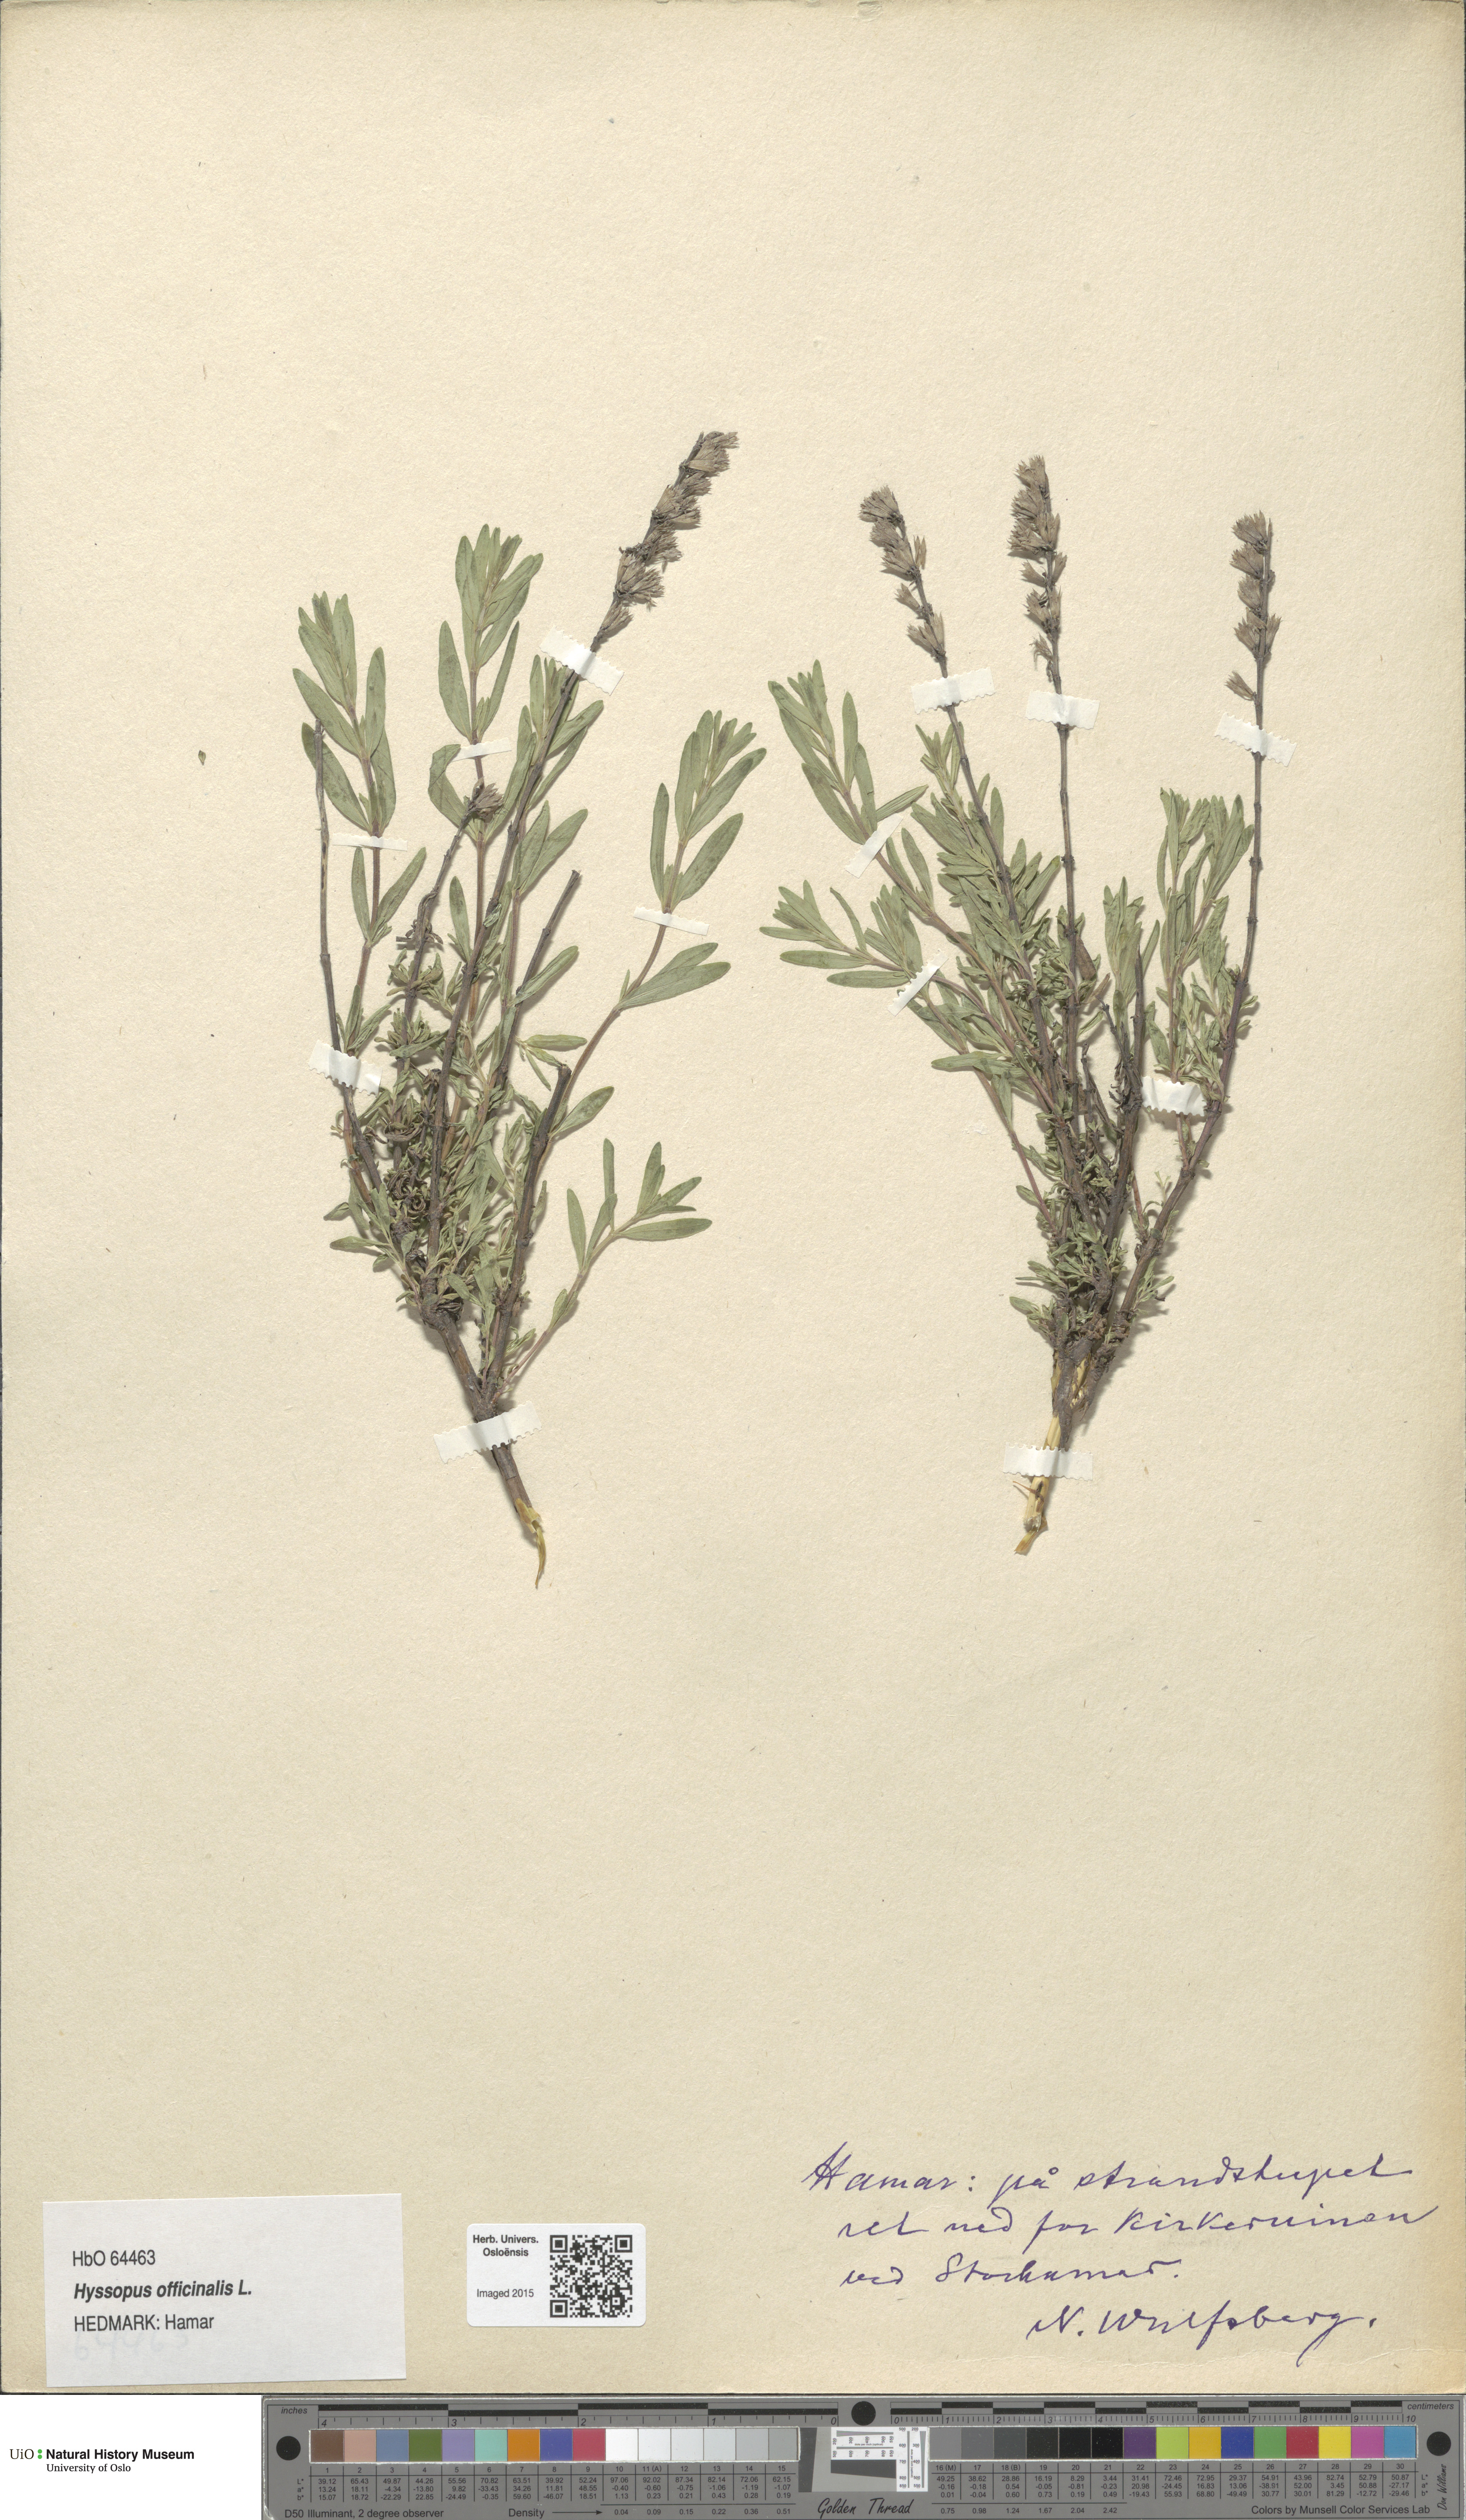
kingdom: Plantae
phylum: Tracheophyta
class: Magnoliopsida
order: Lamiales
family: Lamiaceae
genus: Hyssopus
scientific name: Hyssopus officinalis
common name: Hyssop
